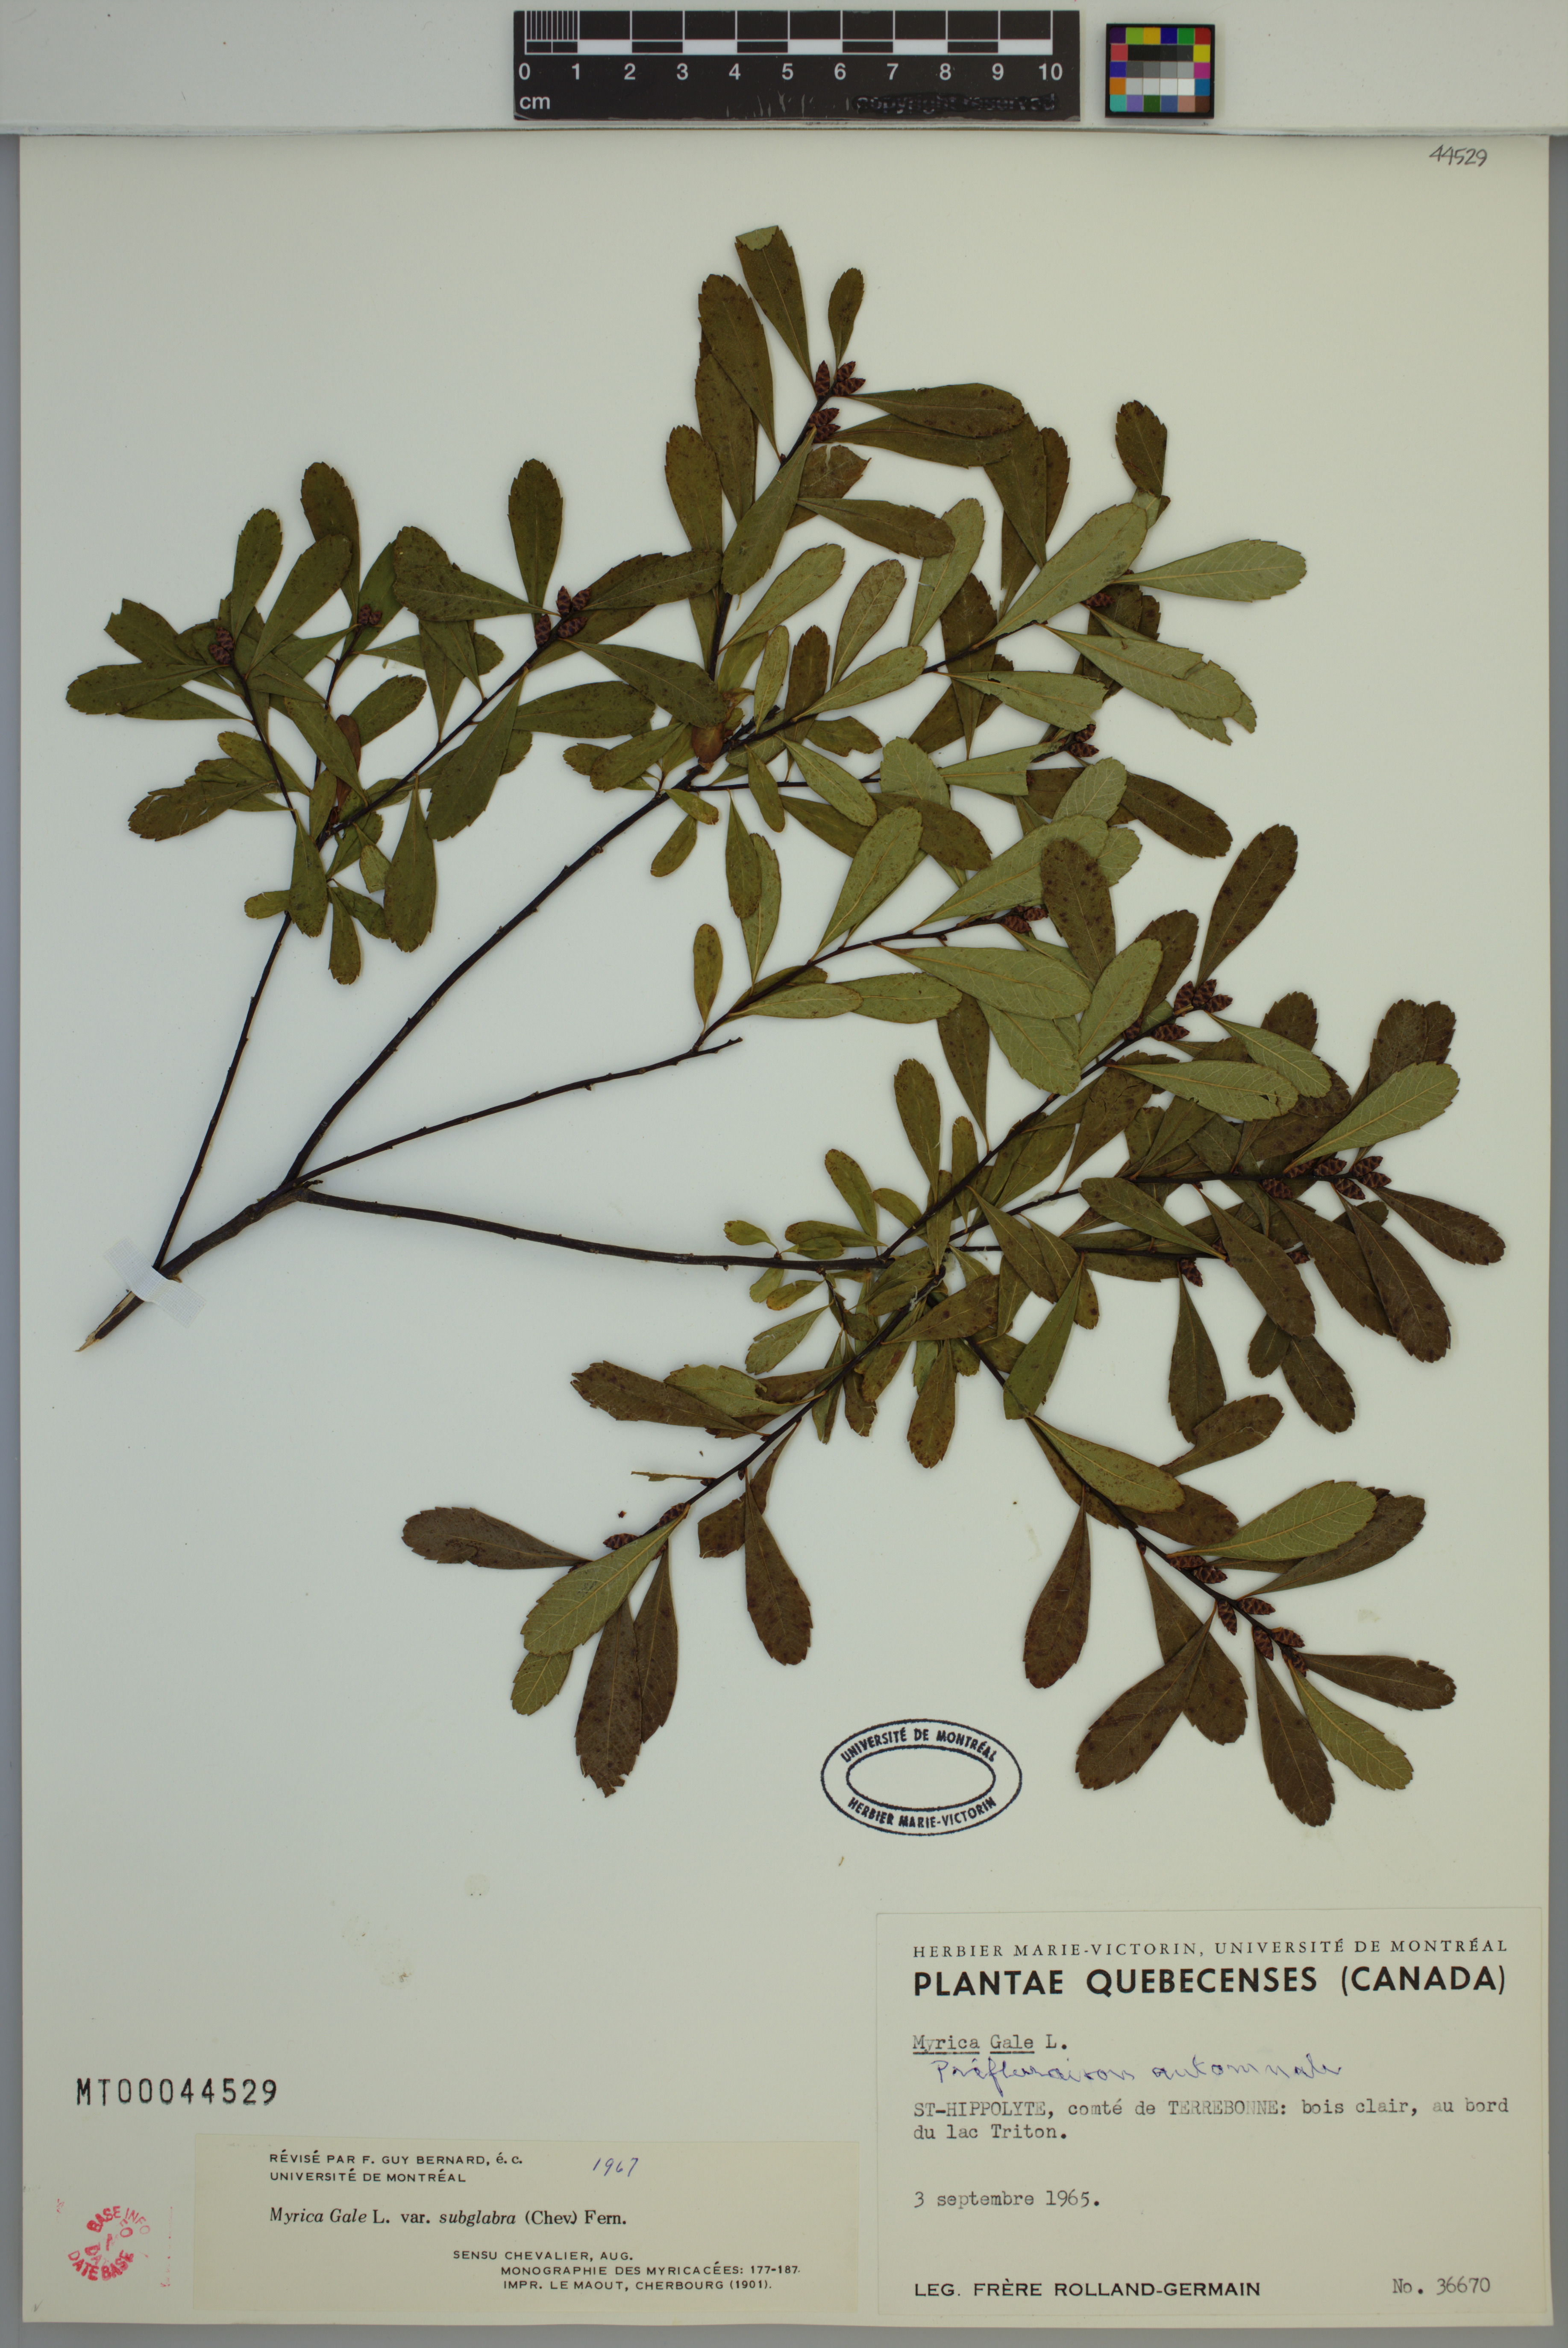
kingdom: Plantae
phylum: Tracheophyta
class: Magnoliopsida
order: Fagales
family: Myricaceae
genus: Myrica
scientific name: Myrica gale
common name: Sweet gale
